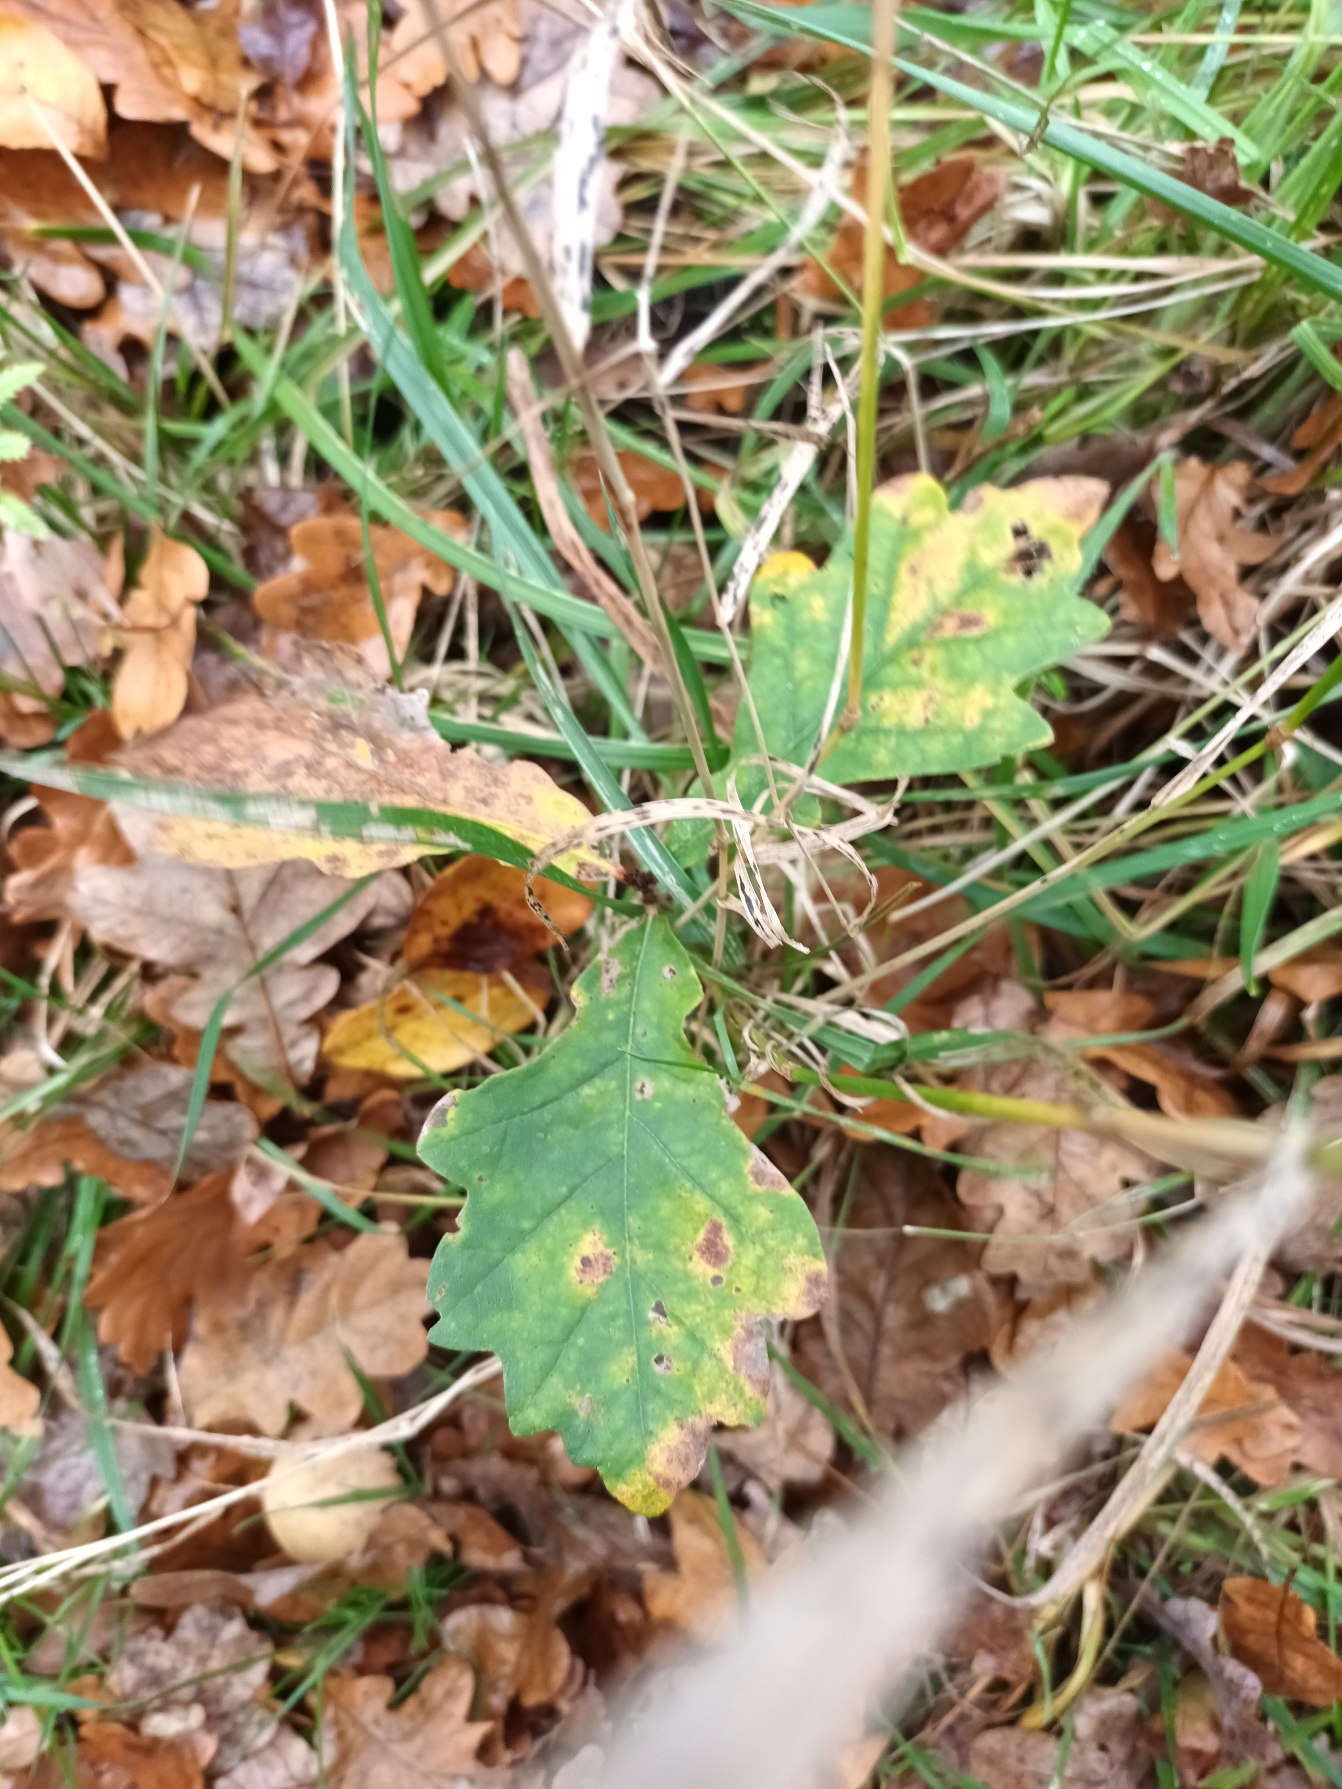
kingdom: Plantae
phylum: Tracheophyta
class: Magnoliopsida
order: Fagales
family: Fagaceae
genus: Quercus
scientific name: Quercus robur
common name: Stilk-eg/almindelig eg
